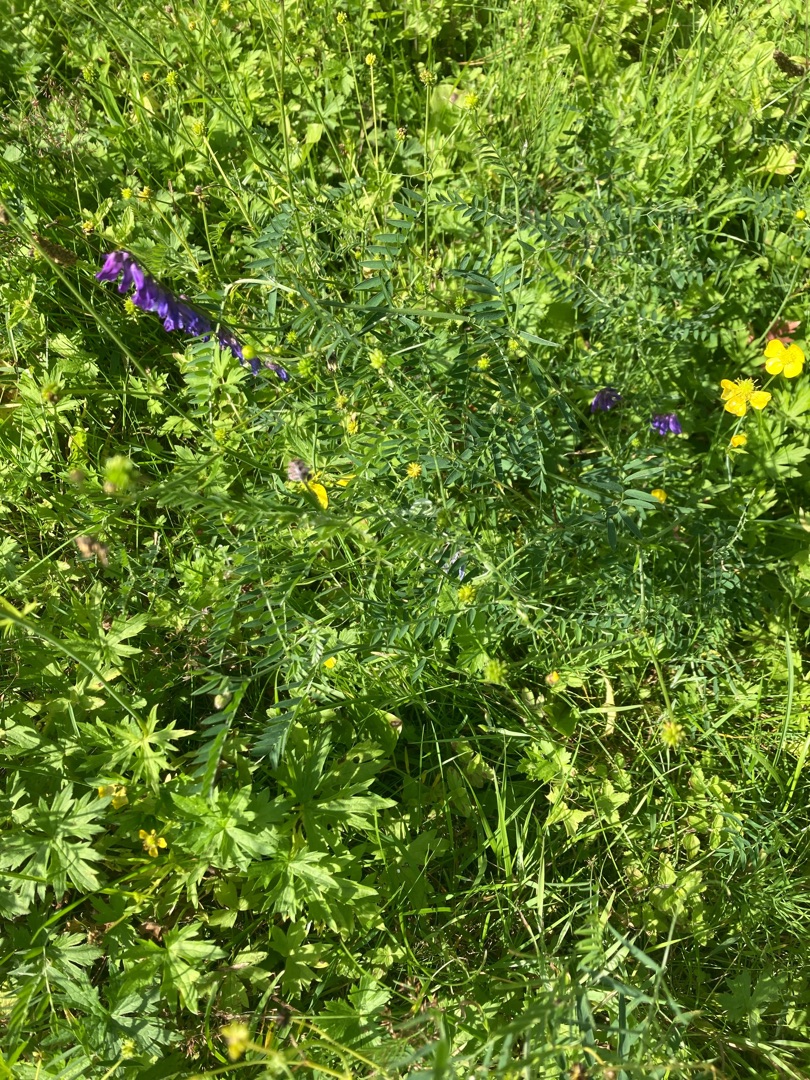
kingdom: Plantae
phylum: Tracheophyta
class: Magnoliopsida
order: Fabales
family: Fabaceae
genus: Vicia
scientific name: Vicia cracca
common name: Muse-vikke
